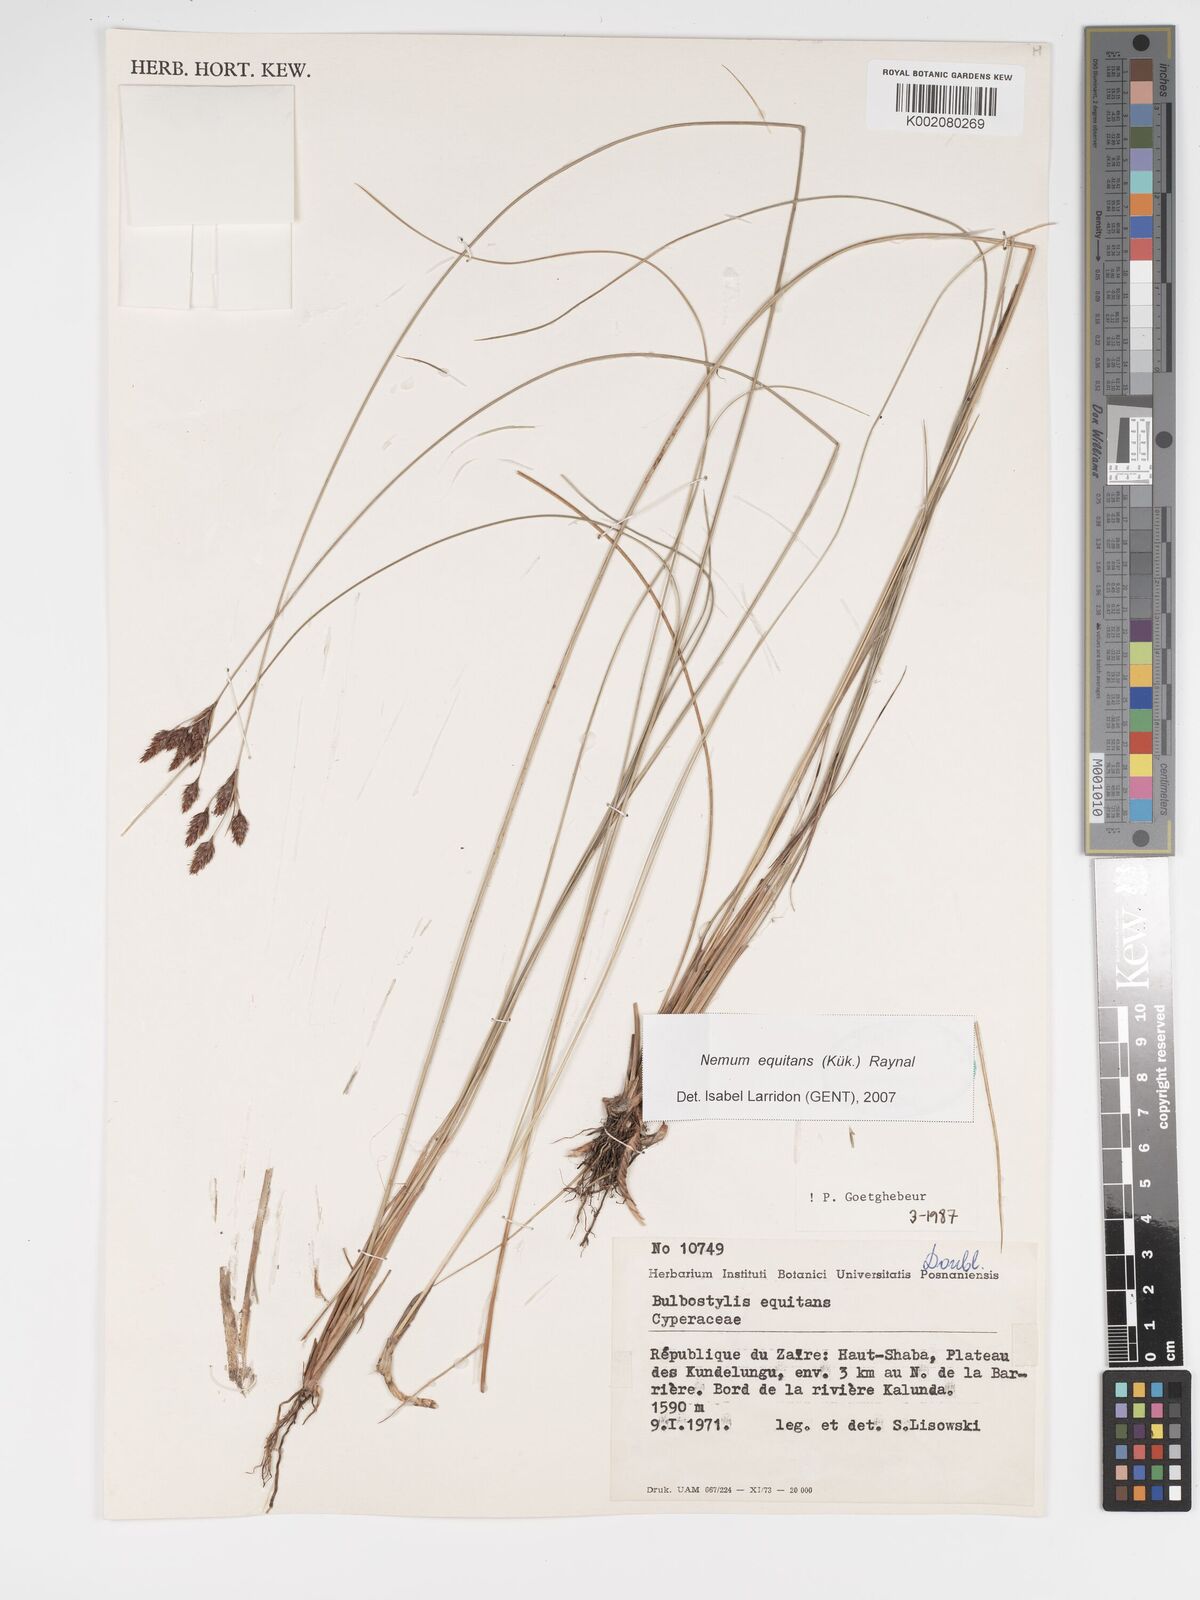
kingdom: Plantae
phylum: Tracheophyta
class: Liliopsida
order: Poales
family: Cyperaceae
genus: Bulbostylis
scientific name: Bulbostylis equitans
